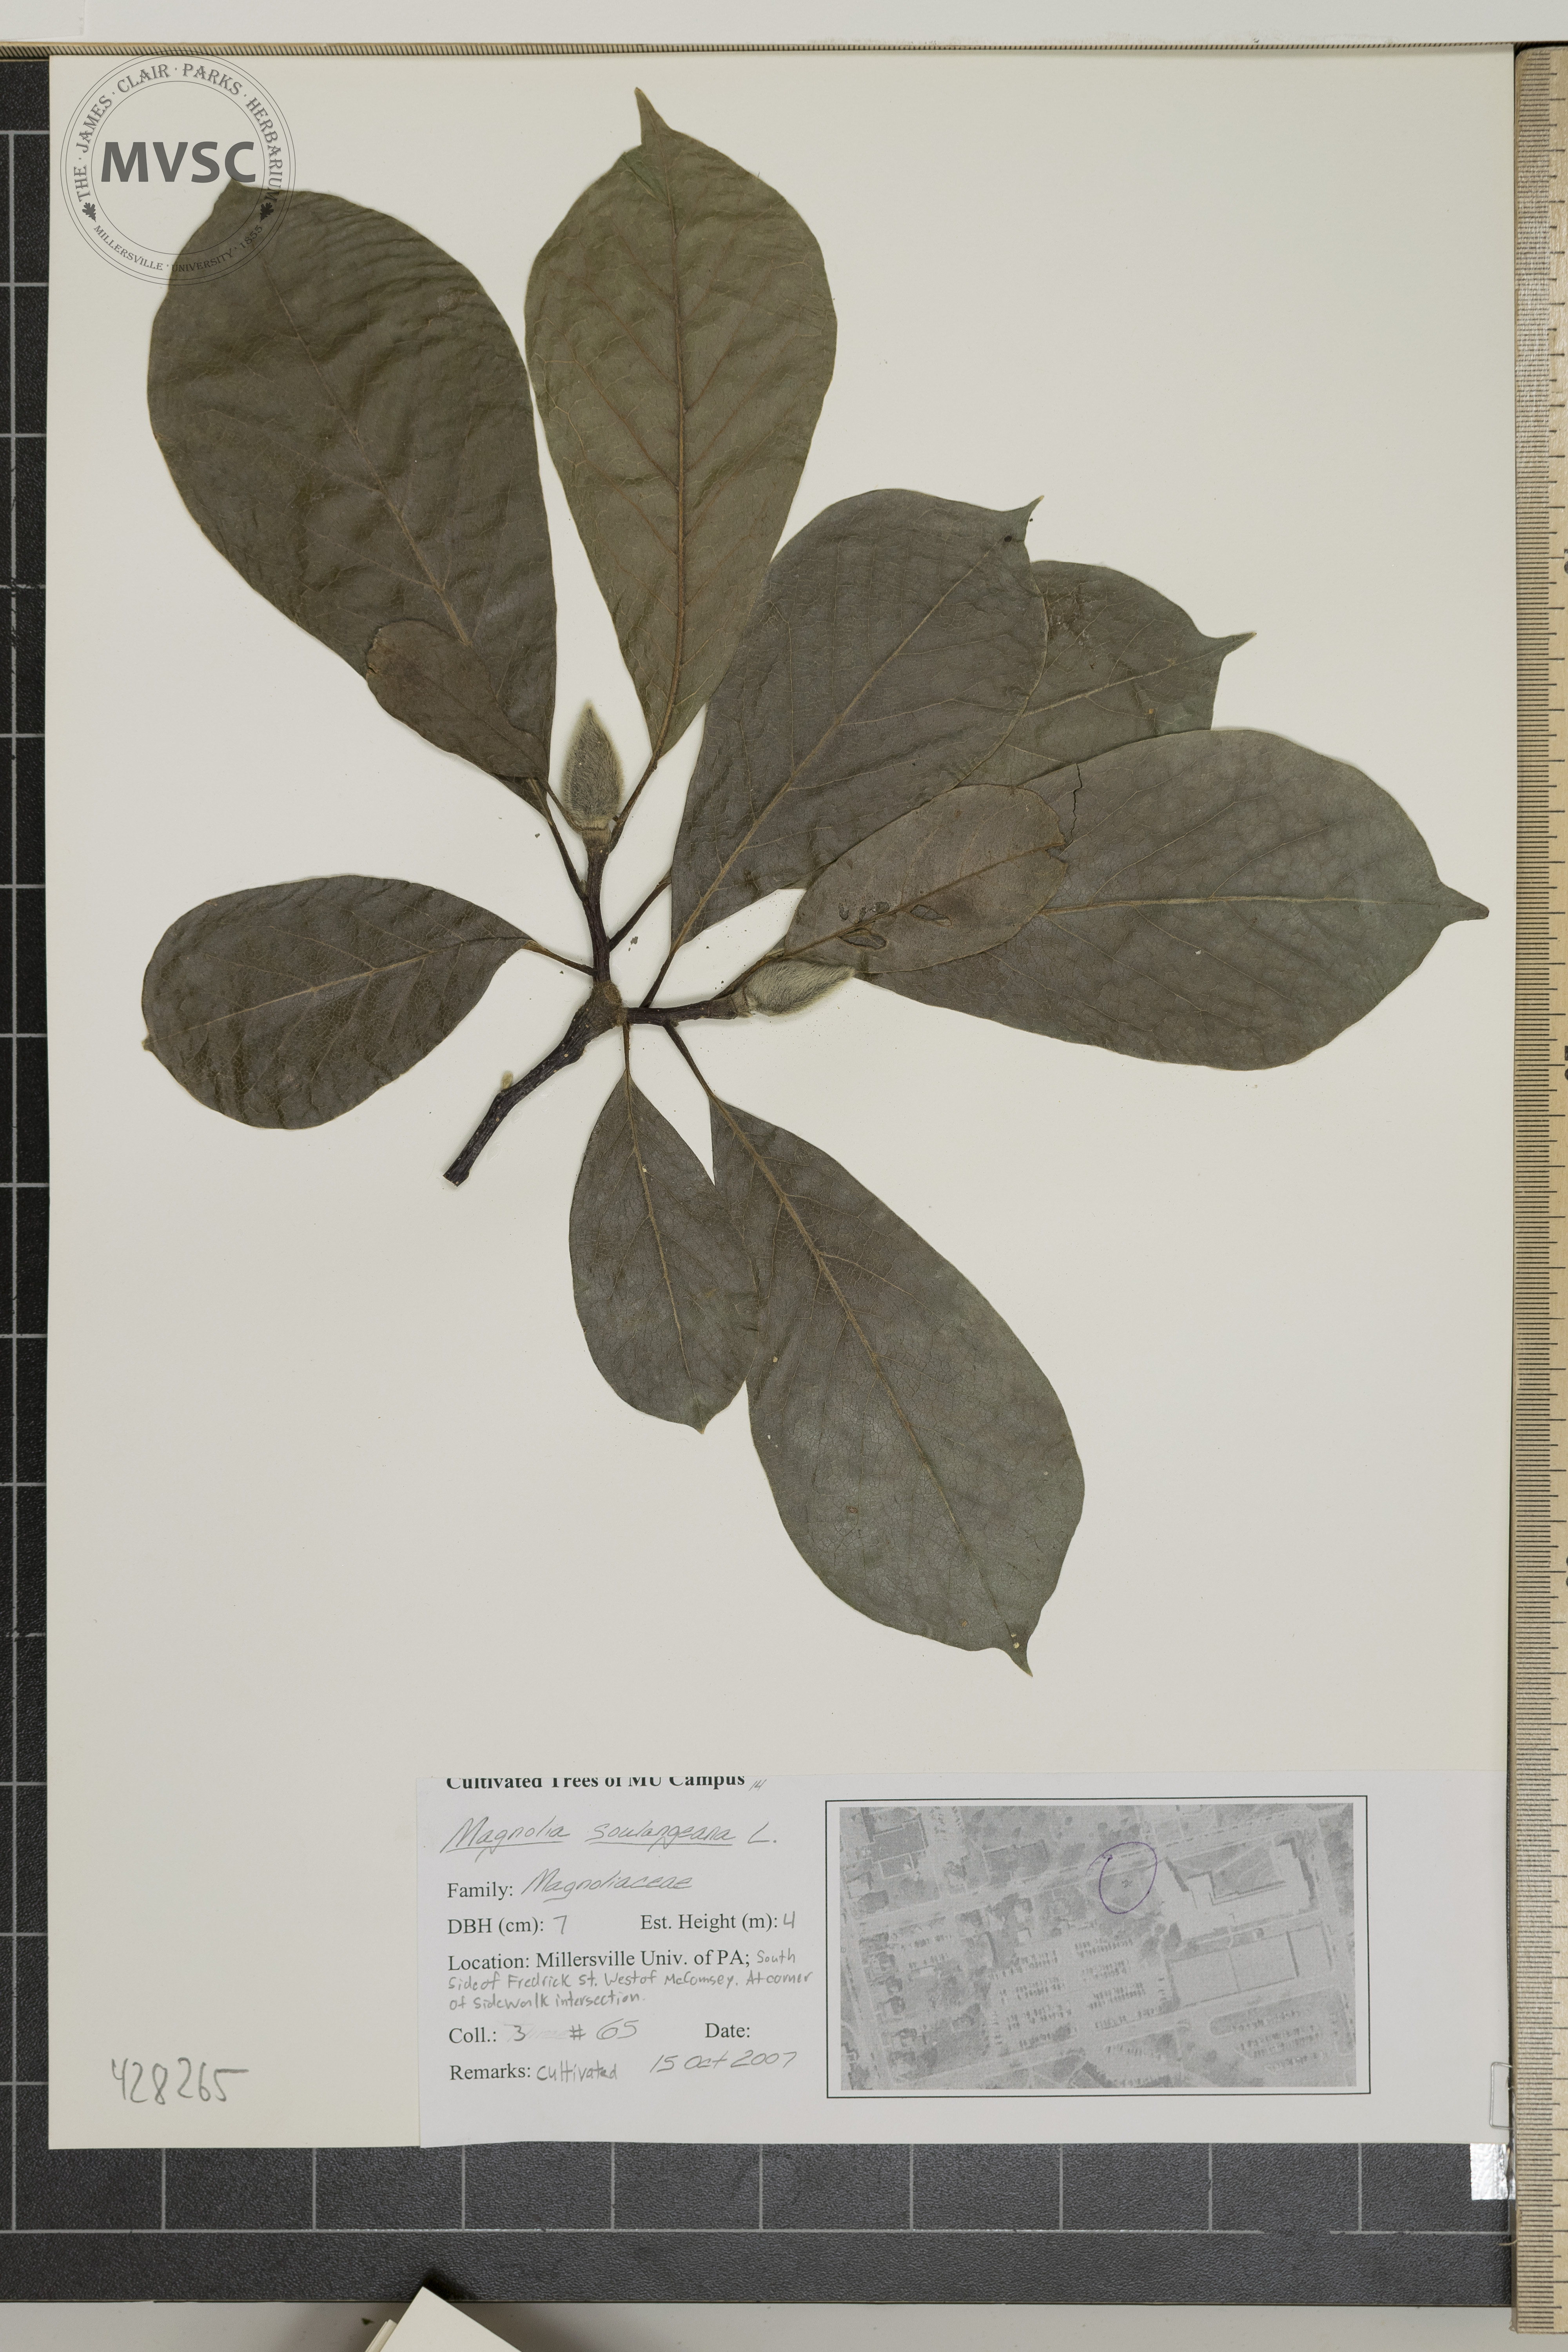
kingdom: Plantae
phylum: Tracheophyta
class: Magnoliopsida
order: Magnoliales
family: Magnoliaceae
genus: Magnolia
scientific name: Magnolia soulangeana
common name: Saucer Magnolia
